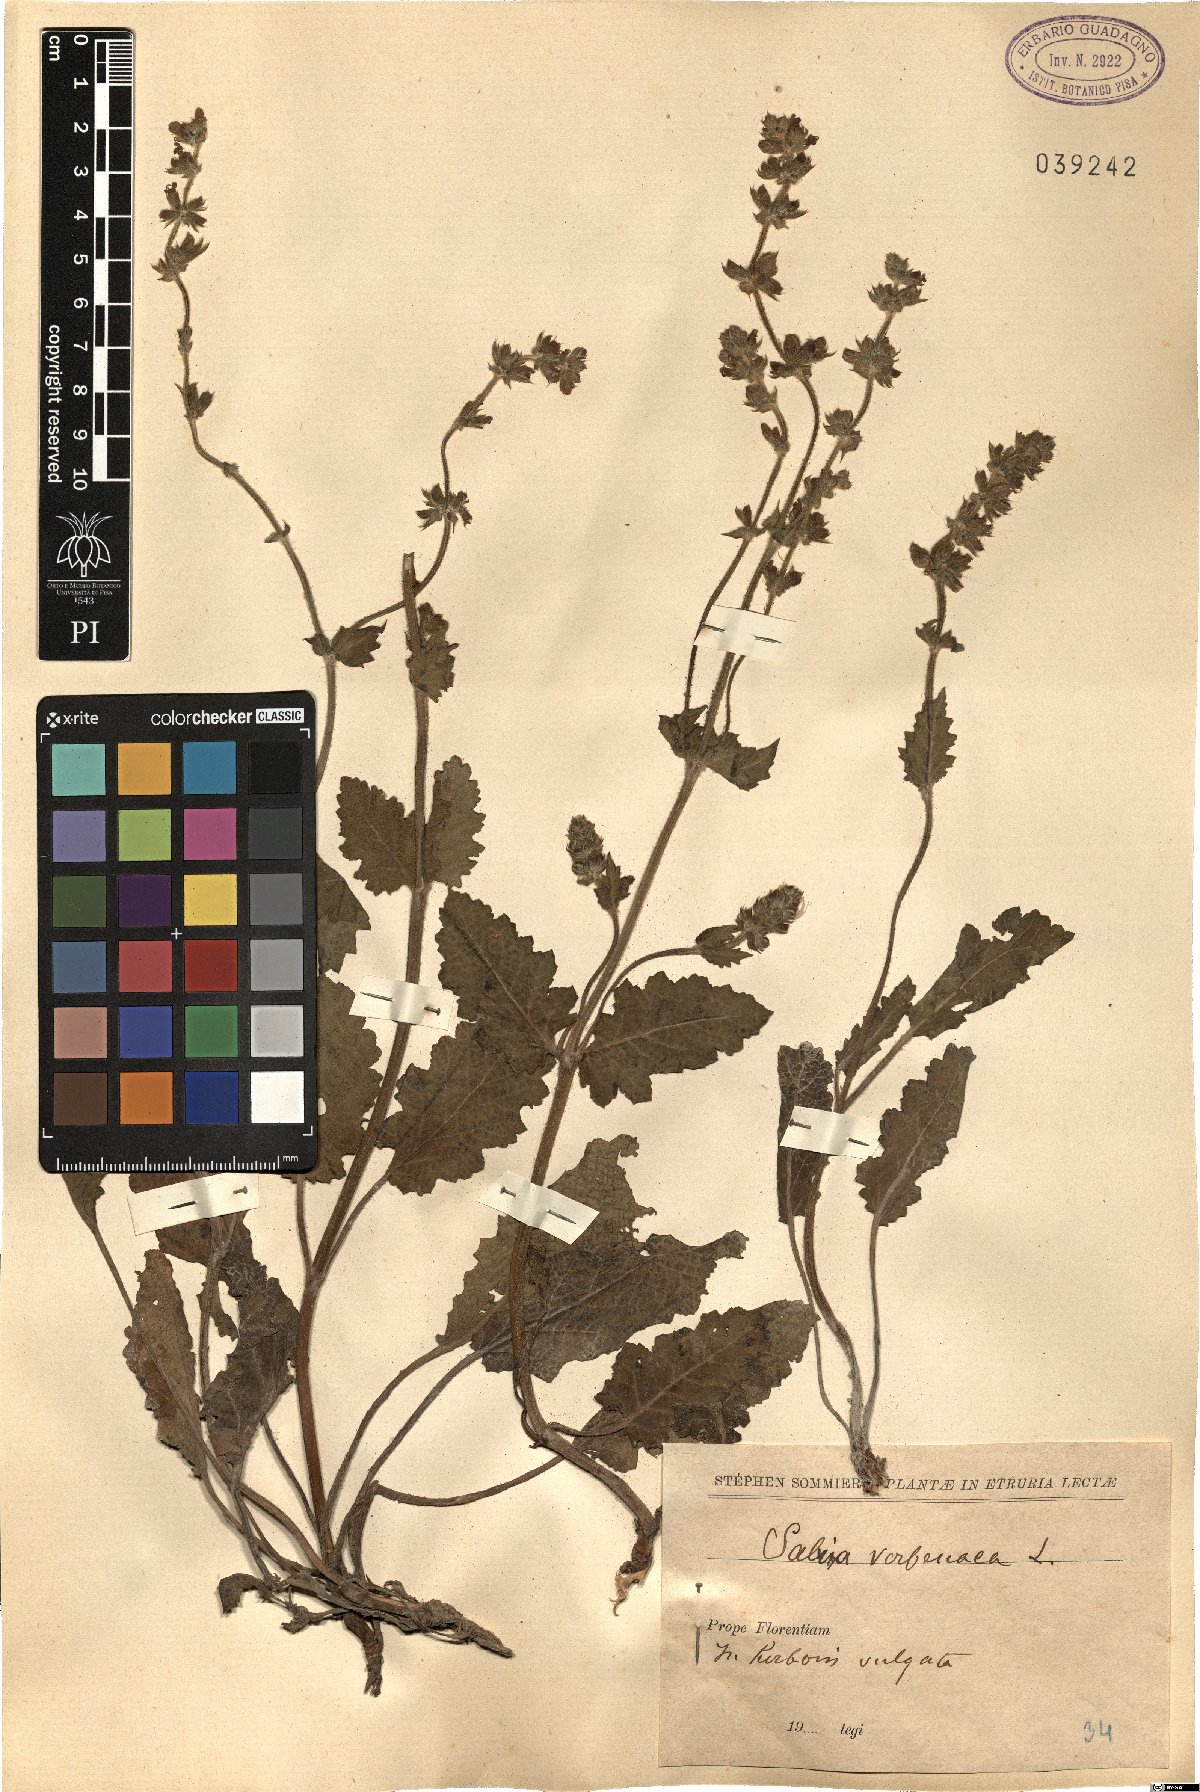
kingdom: Plantae
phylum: Tracheophyta
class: Magnoliopsida
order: Lamiales
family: Lamiaceae
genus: Salvia
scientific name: Salvia verbenaca
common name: Wild clary
